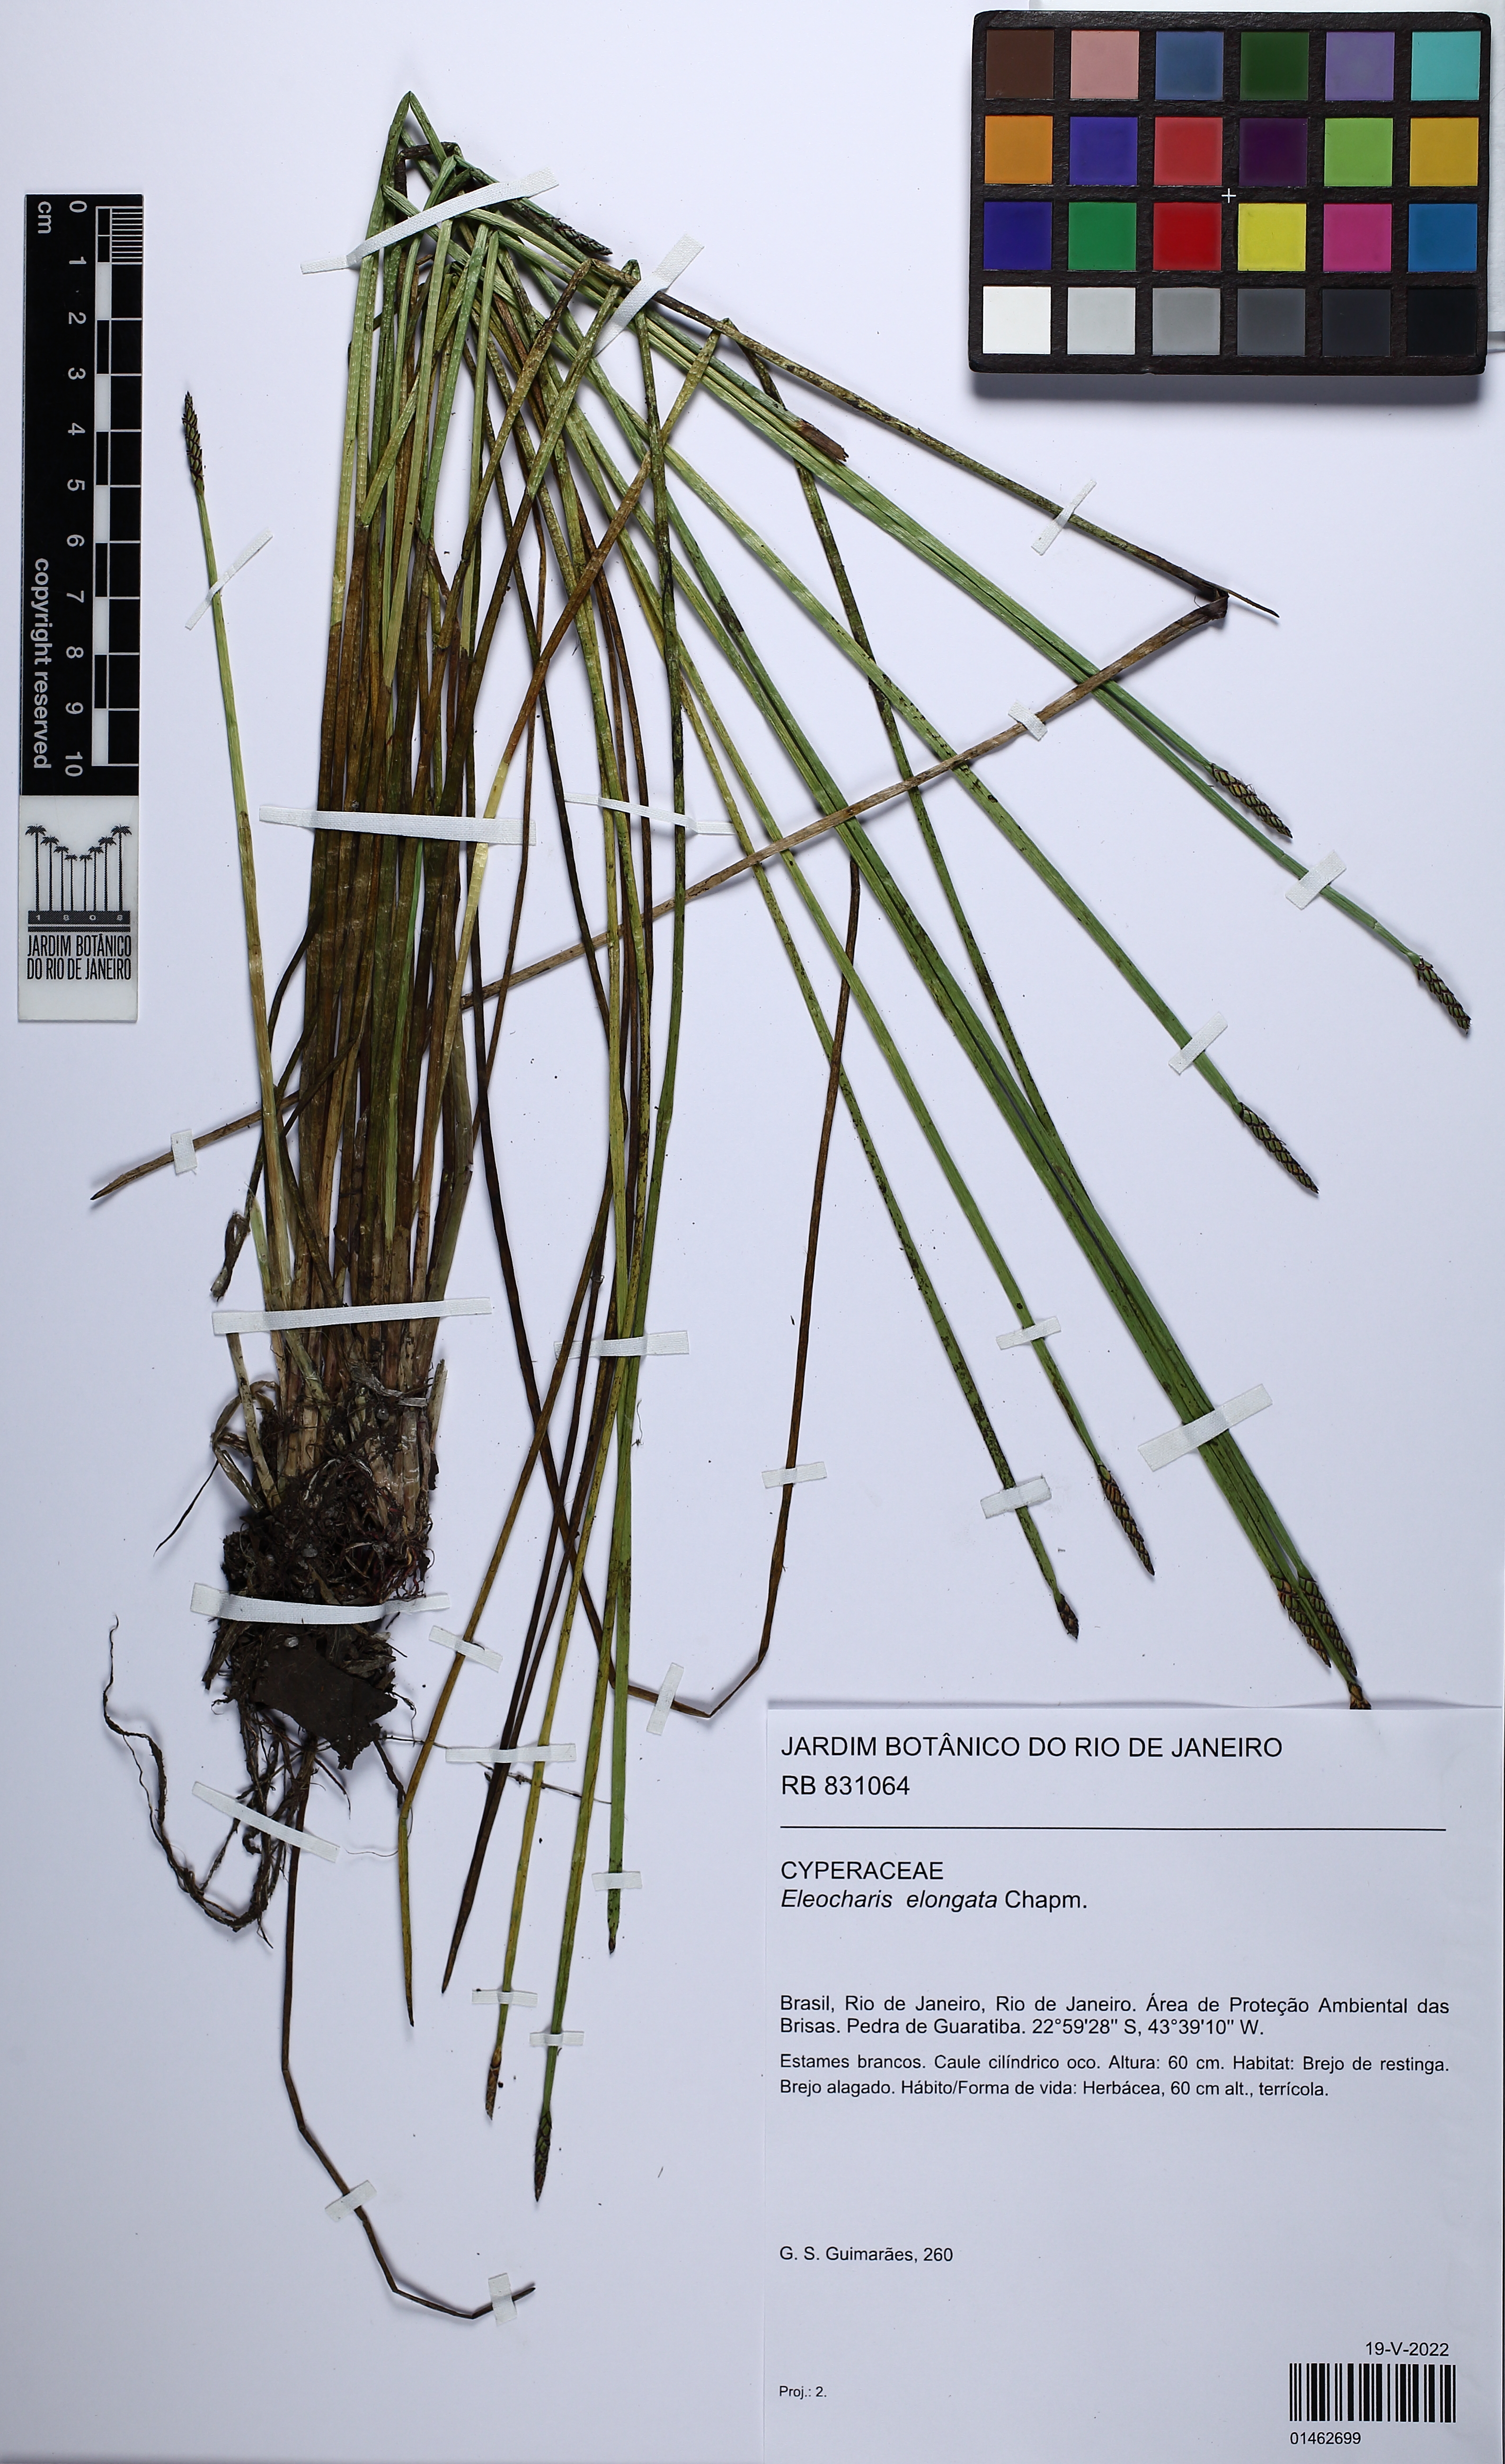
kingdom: Plantae
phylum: Tracheophyta
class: Liliopsida
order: Poales
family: Cyperaceae
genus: Eleocharis
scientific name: Eleocharis elongata
